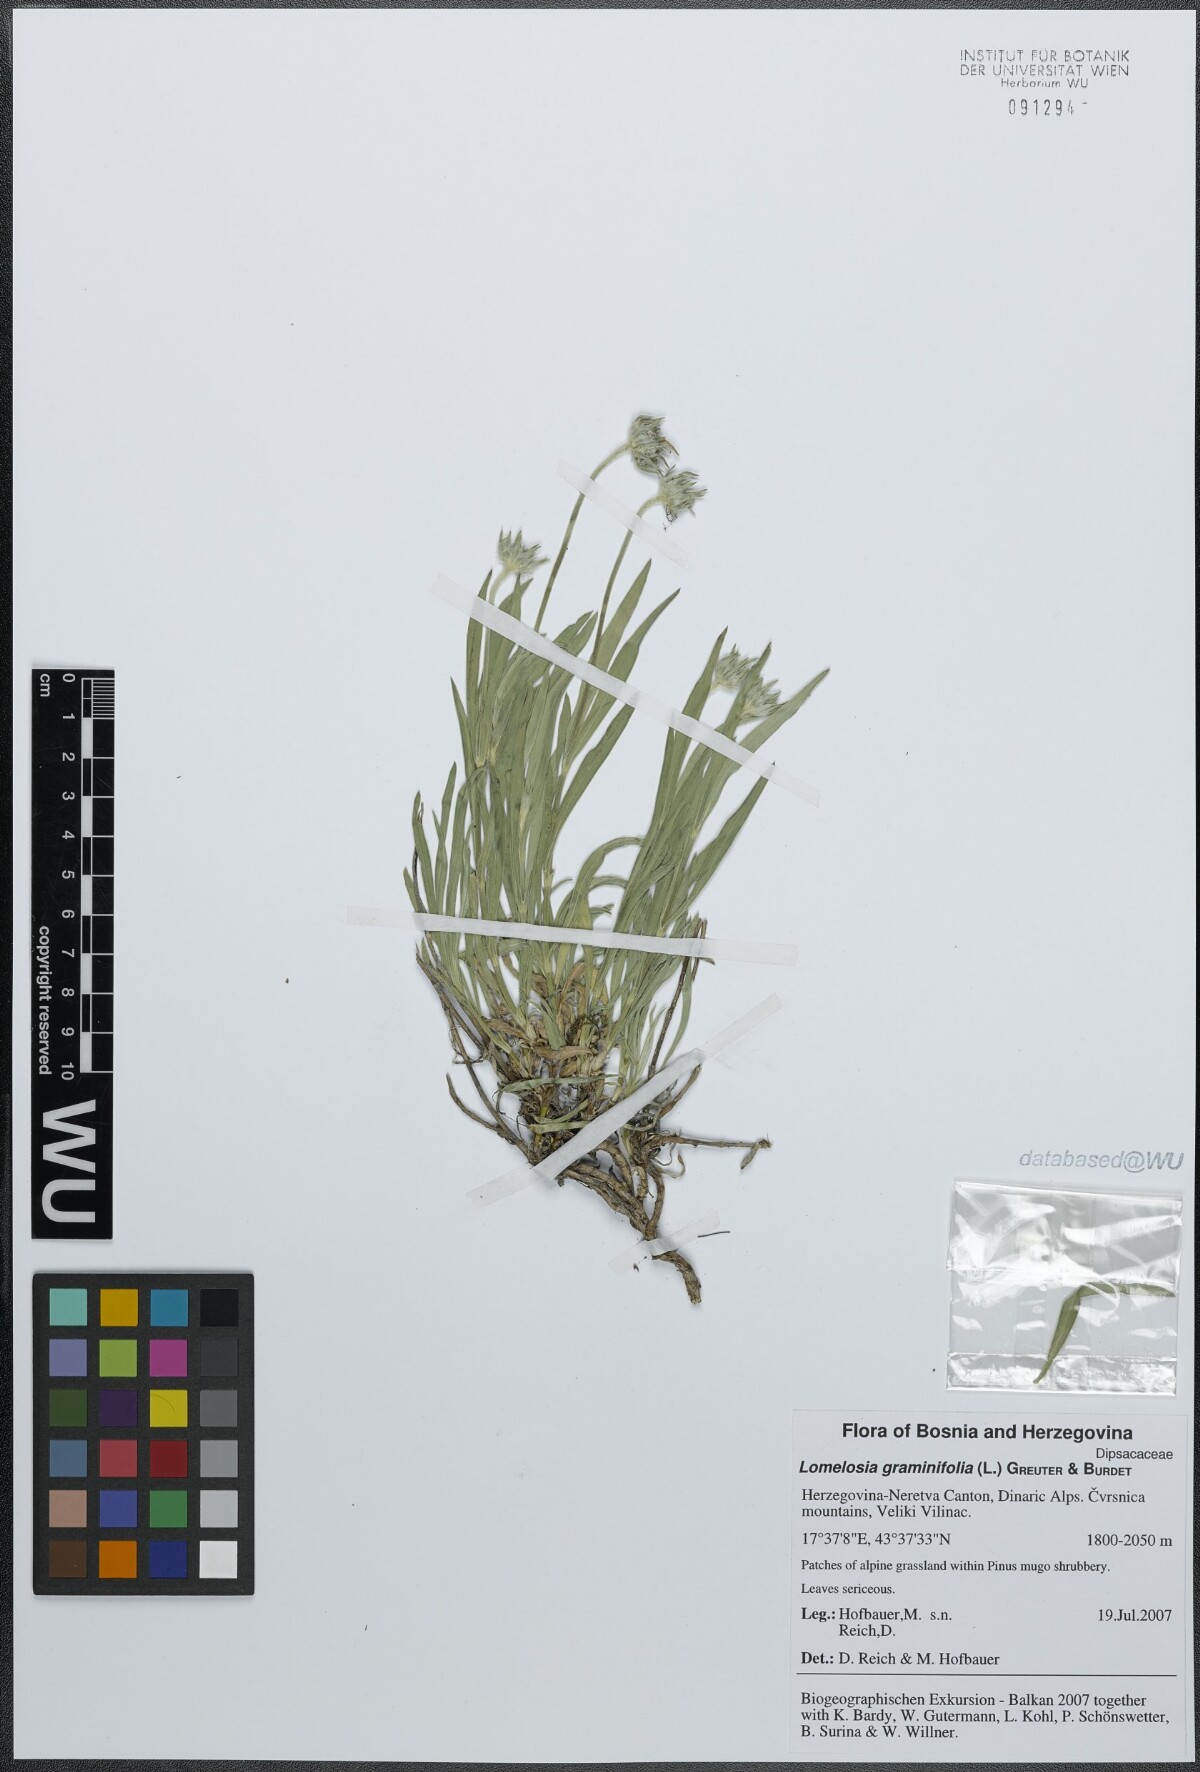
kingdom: Plantae
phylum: Tracheophyta
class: Magnoliopsida
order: Dipsacales
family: Caprifoliaceae
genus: Lomelosia
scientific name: Lomelosia graminifolia
